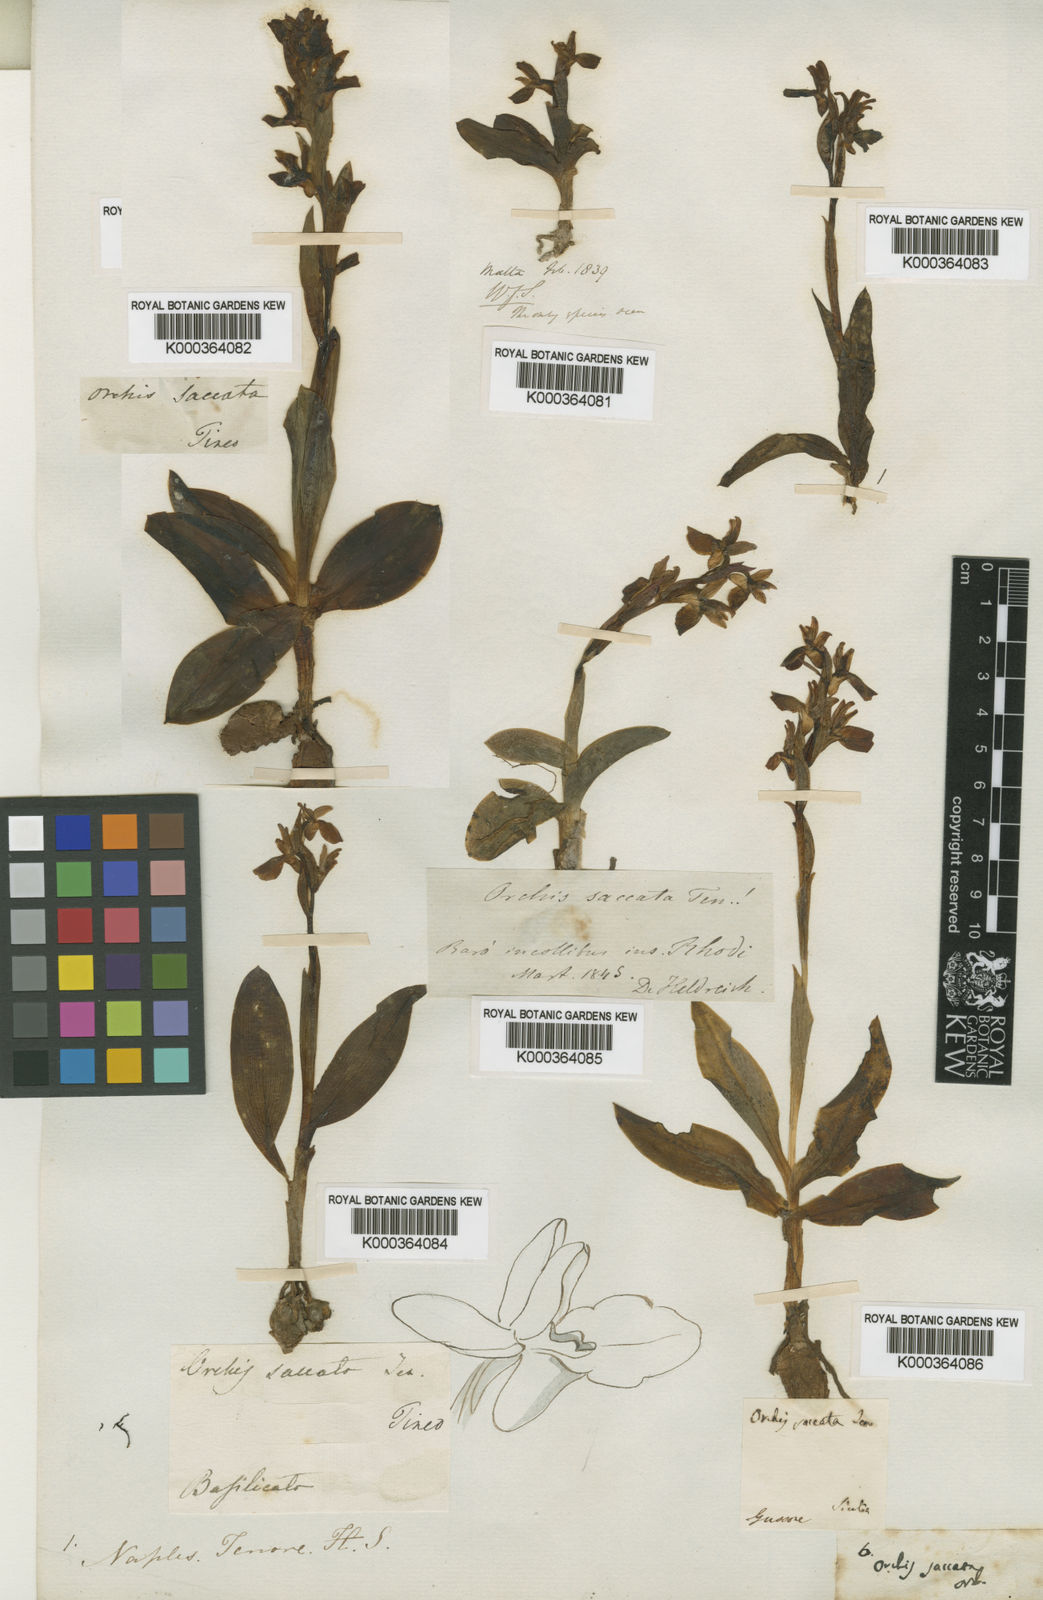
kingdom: Plantae
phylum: Tracheophyta
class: Liliopsida
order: Asparagales
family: Orchidaceae
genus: Anacamptis
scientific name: Anacamptis collina
